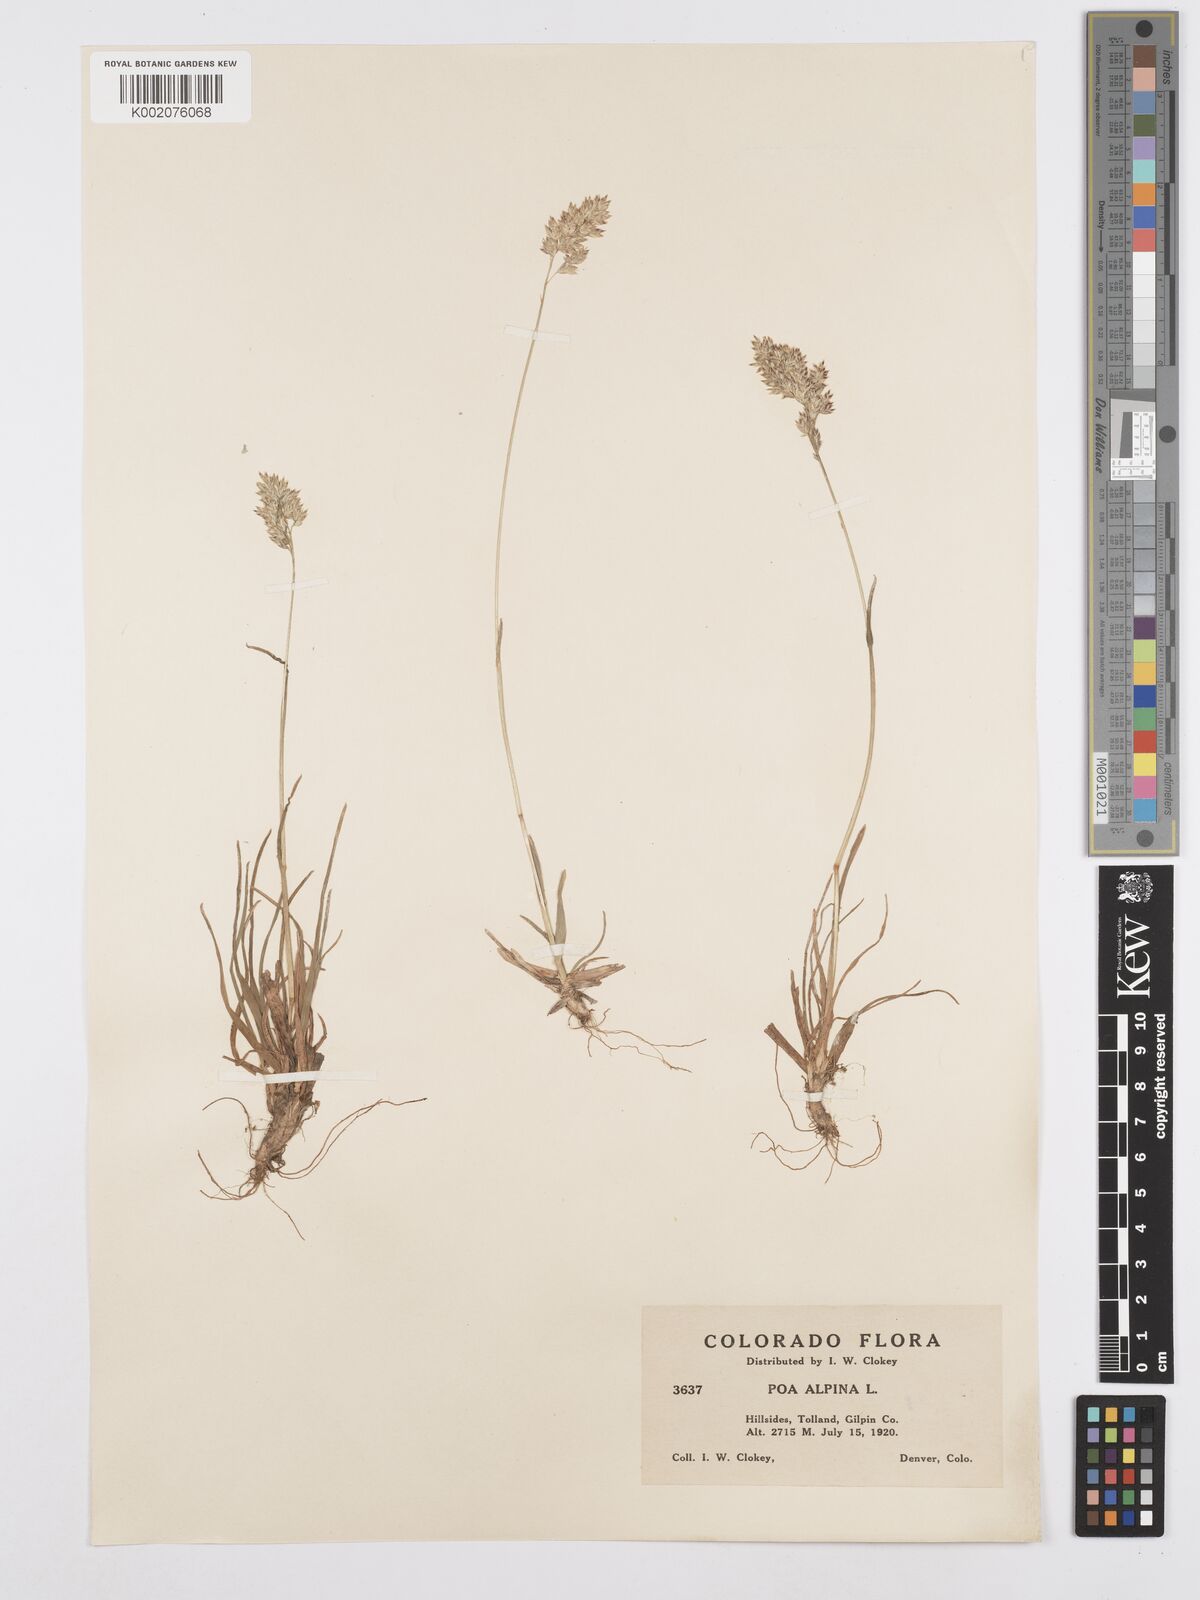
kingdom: Plantae
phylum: Tracheophyta
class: Liliopsida
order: Poales
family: Poaceae
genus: Poa
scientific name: Poa alpina
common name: Alpine bluegrass
